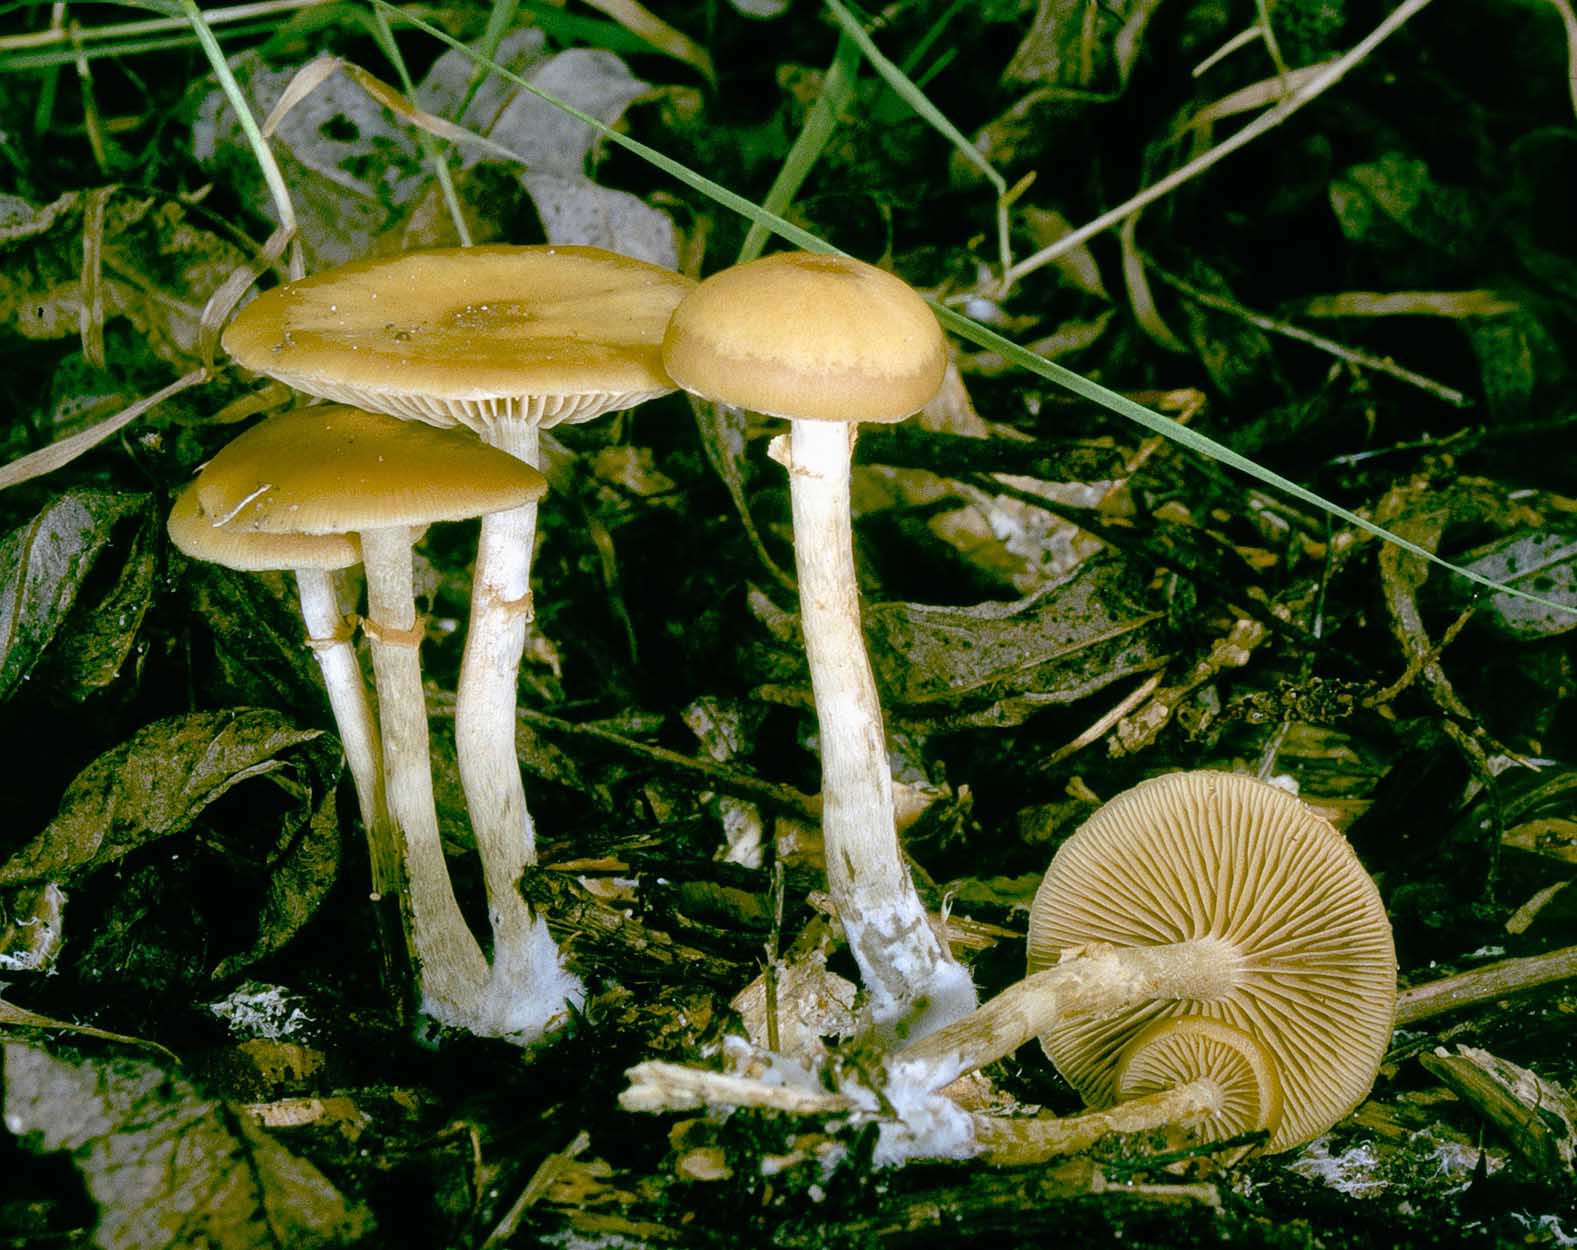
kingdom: Fungi
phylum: Basidiomycota
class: Agaricomycetes
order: Agaricales
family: Hymenogastraceae
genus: Galerina
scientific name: Galerina marginata
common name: randbæltet hjelmhat
